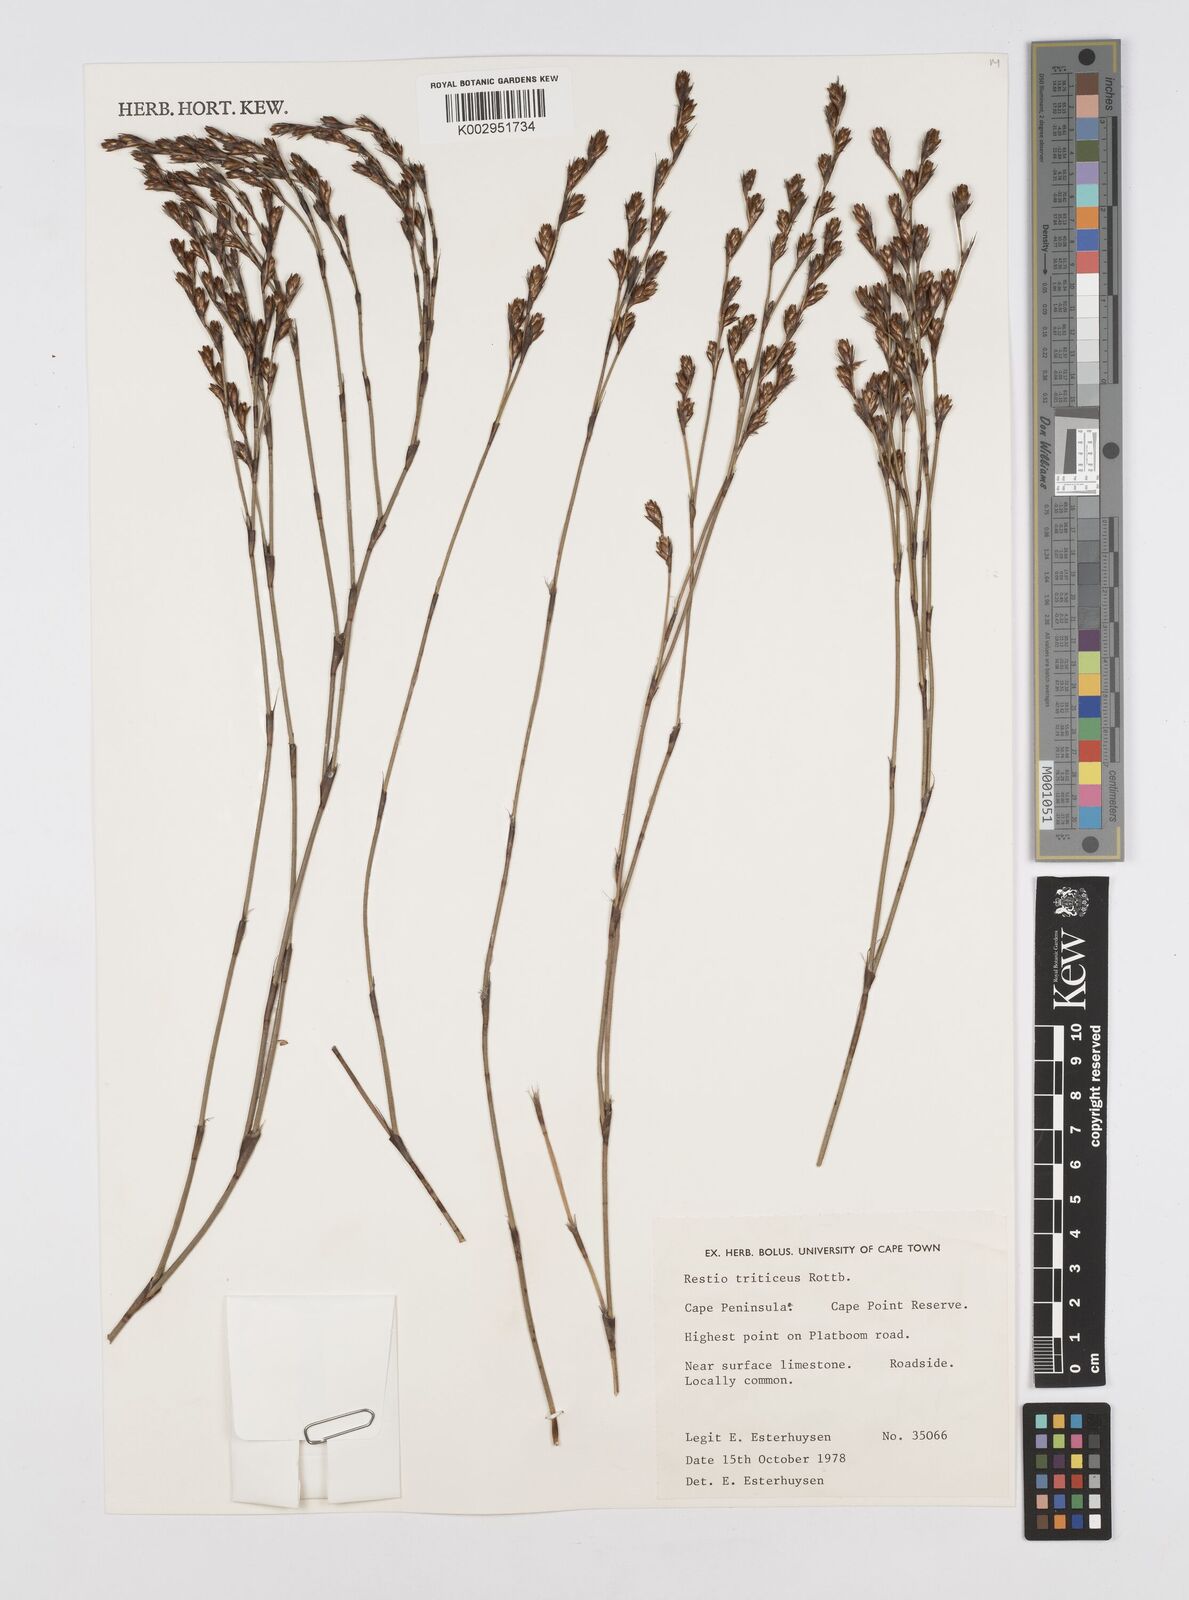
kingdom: Plantae
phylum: Tracheophyta
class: Liliopsida
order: Poales
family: Restionaceae
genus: Restio
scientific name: Restio triticeus
